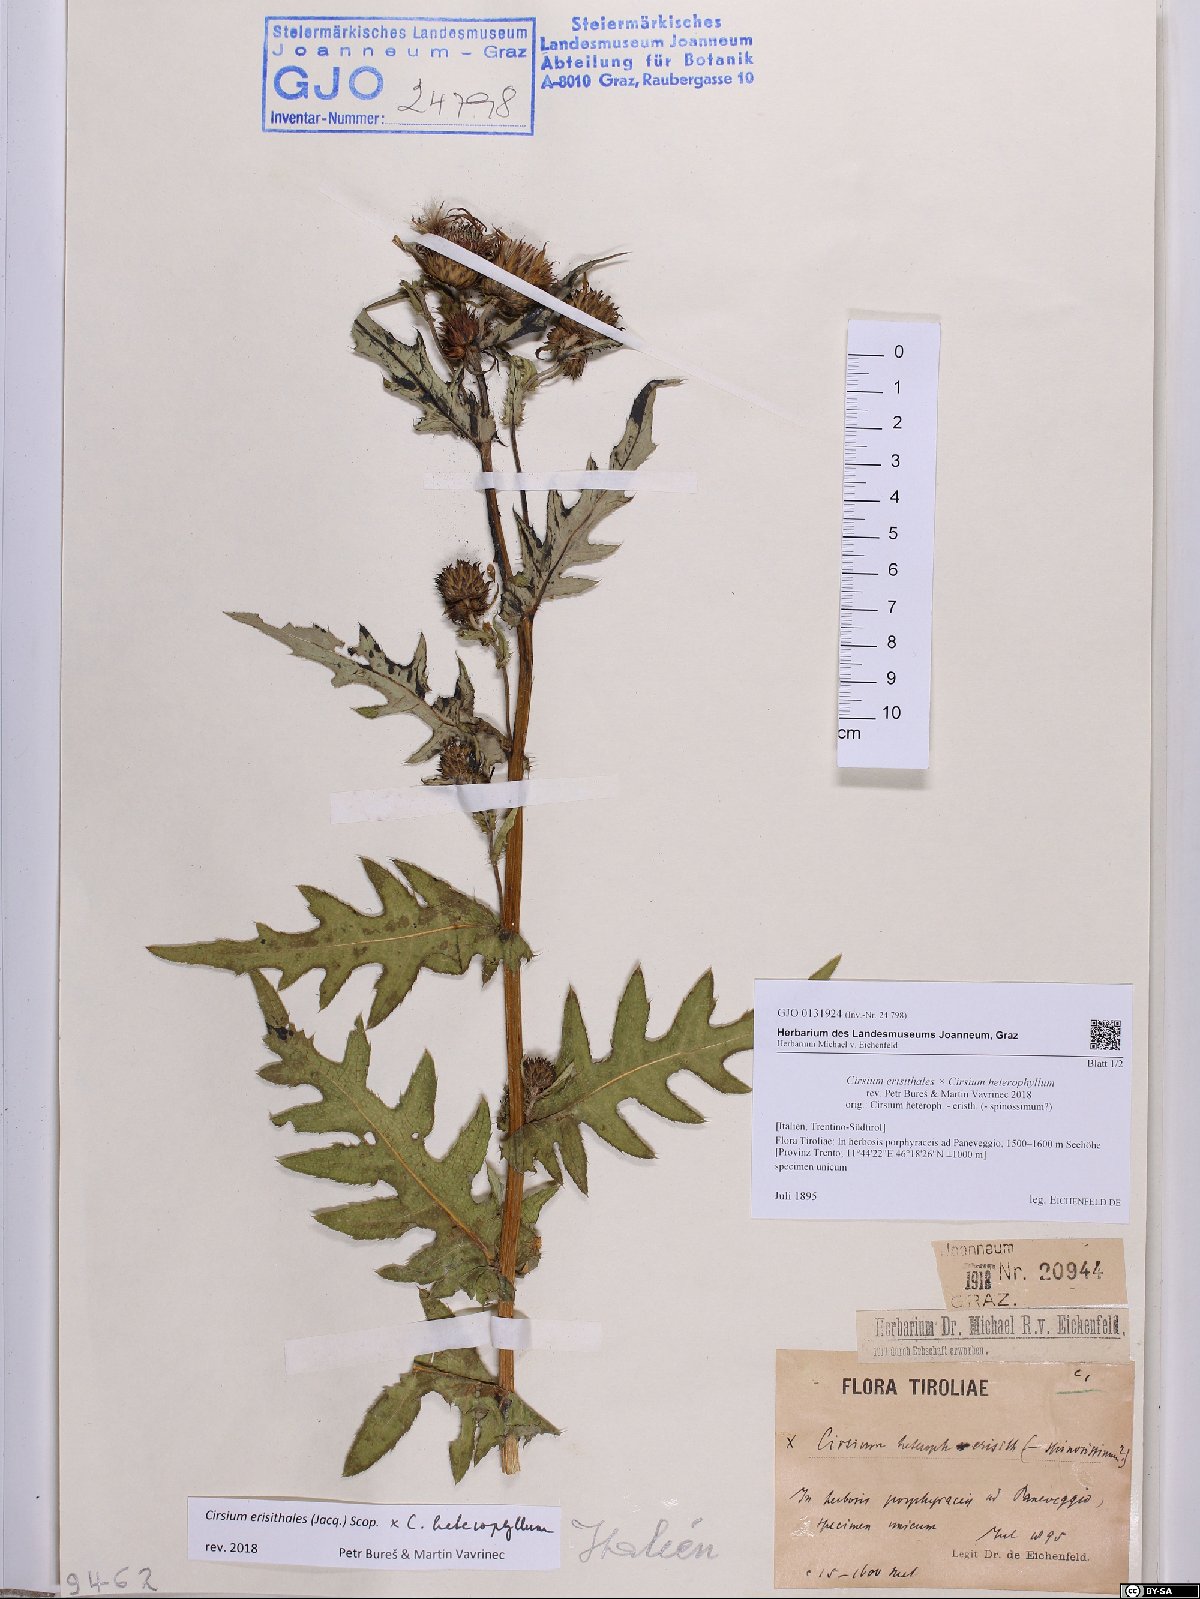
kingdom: Plantae
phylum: Tracheophyta
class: Magnoliopsida
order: Asterales
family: Asteraceae
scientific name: Asteraceae
